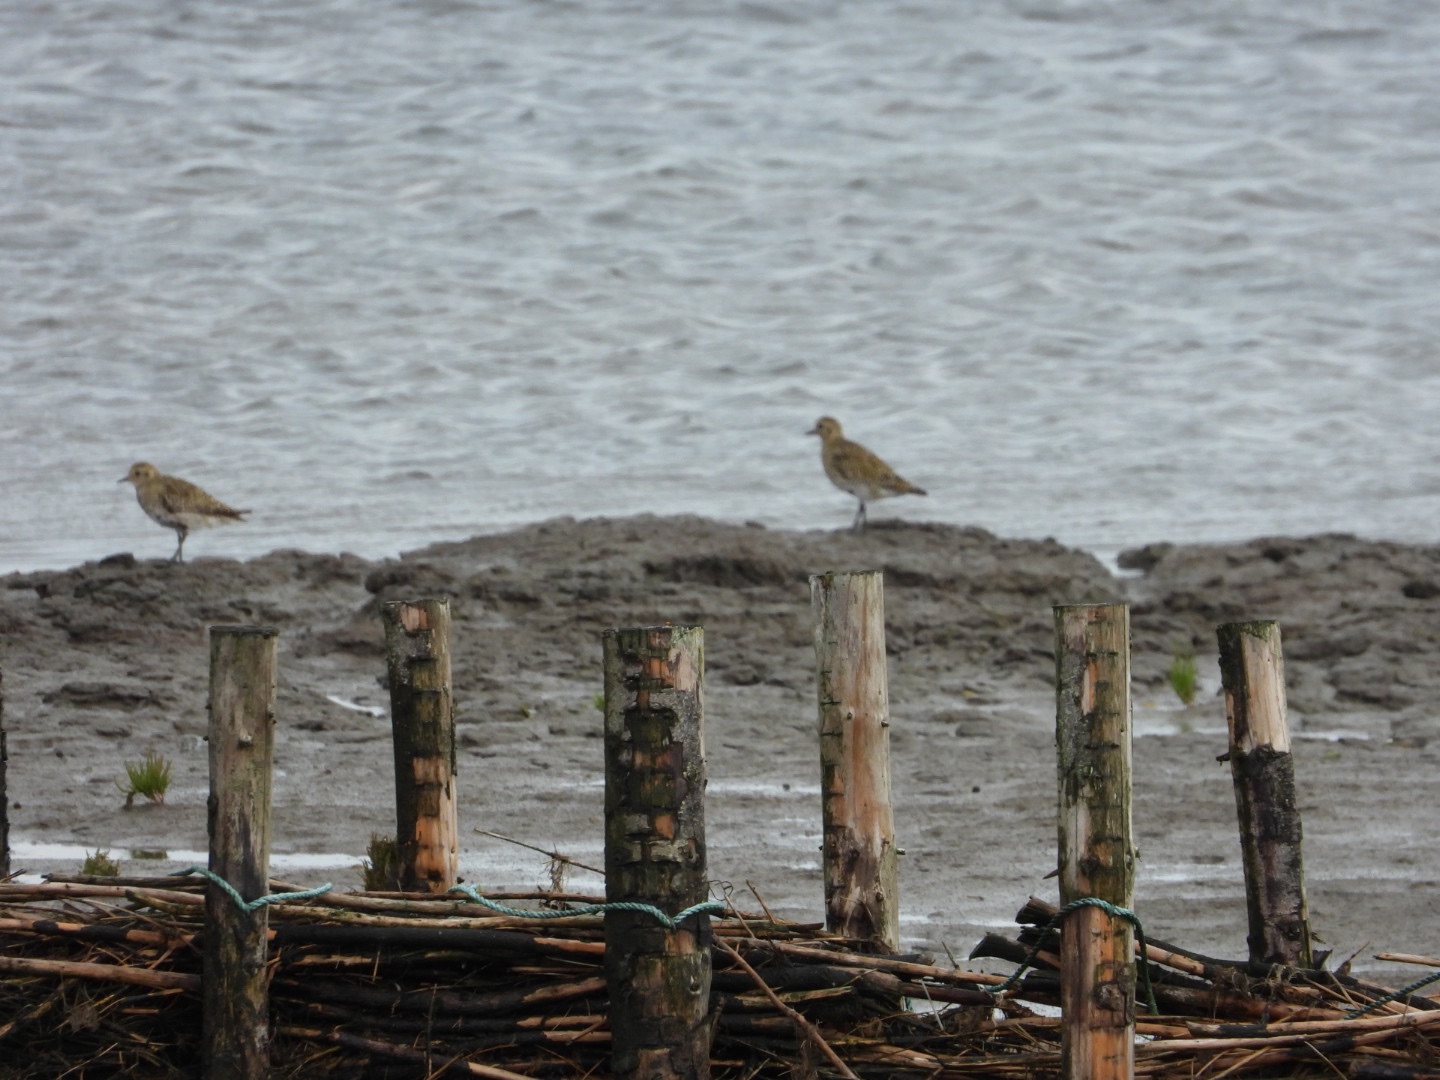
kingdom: Animalia
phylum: Chordata
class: Aves
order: Charadriiformes
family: Charadriidae
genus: Pluvialis
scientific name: Pluvialis apricaria
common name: Hjejle
